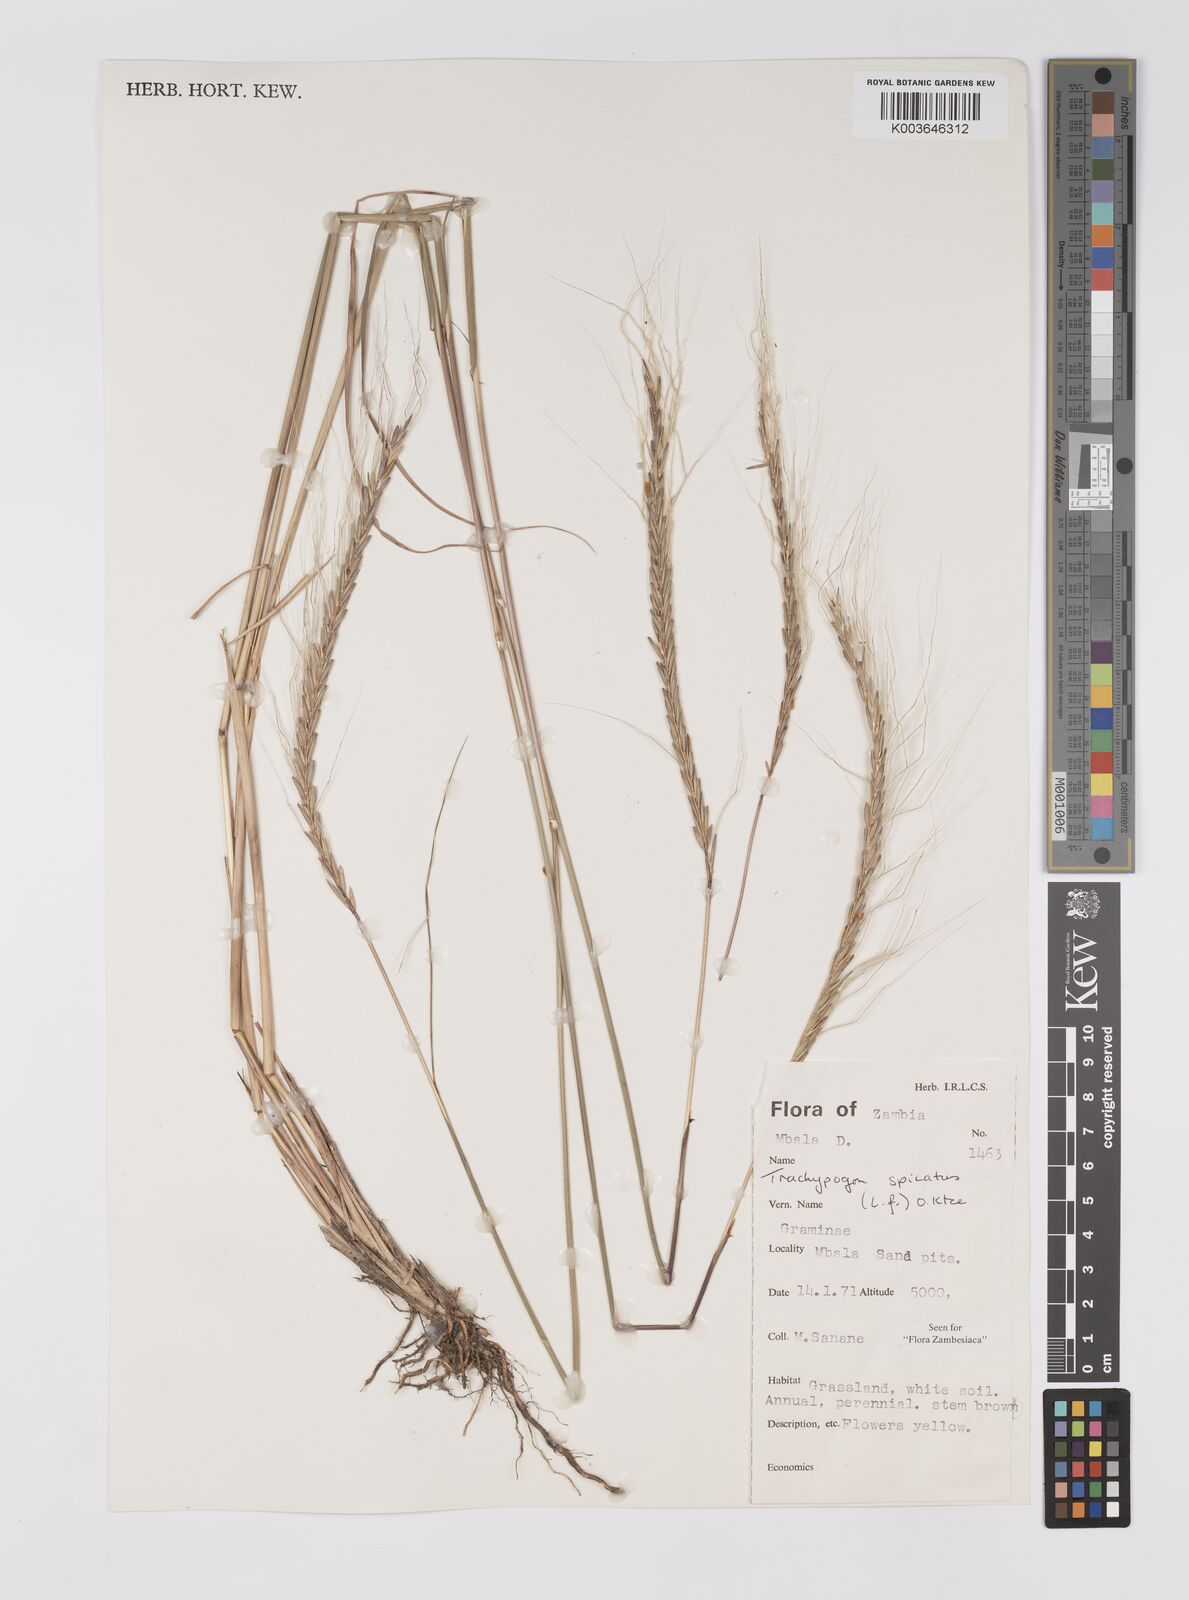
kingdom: Plantae
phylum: Tracheophyta
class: Liliopsida
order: Poales
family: Poaceae
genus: Trachypogon
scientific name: Trachypogon spicatus
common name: Crinkle-awn
